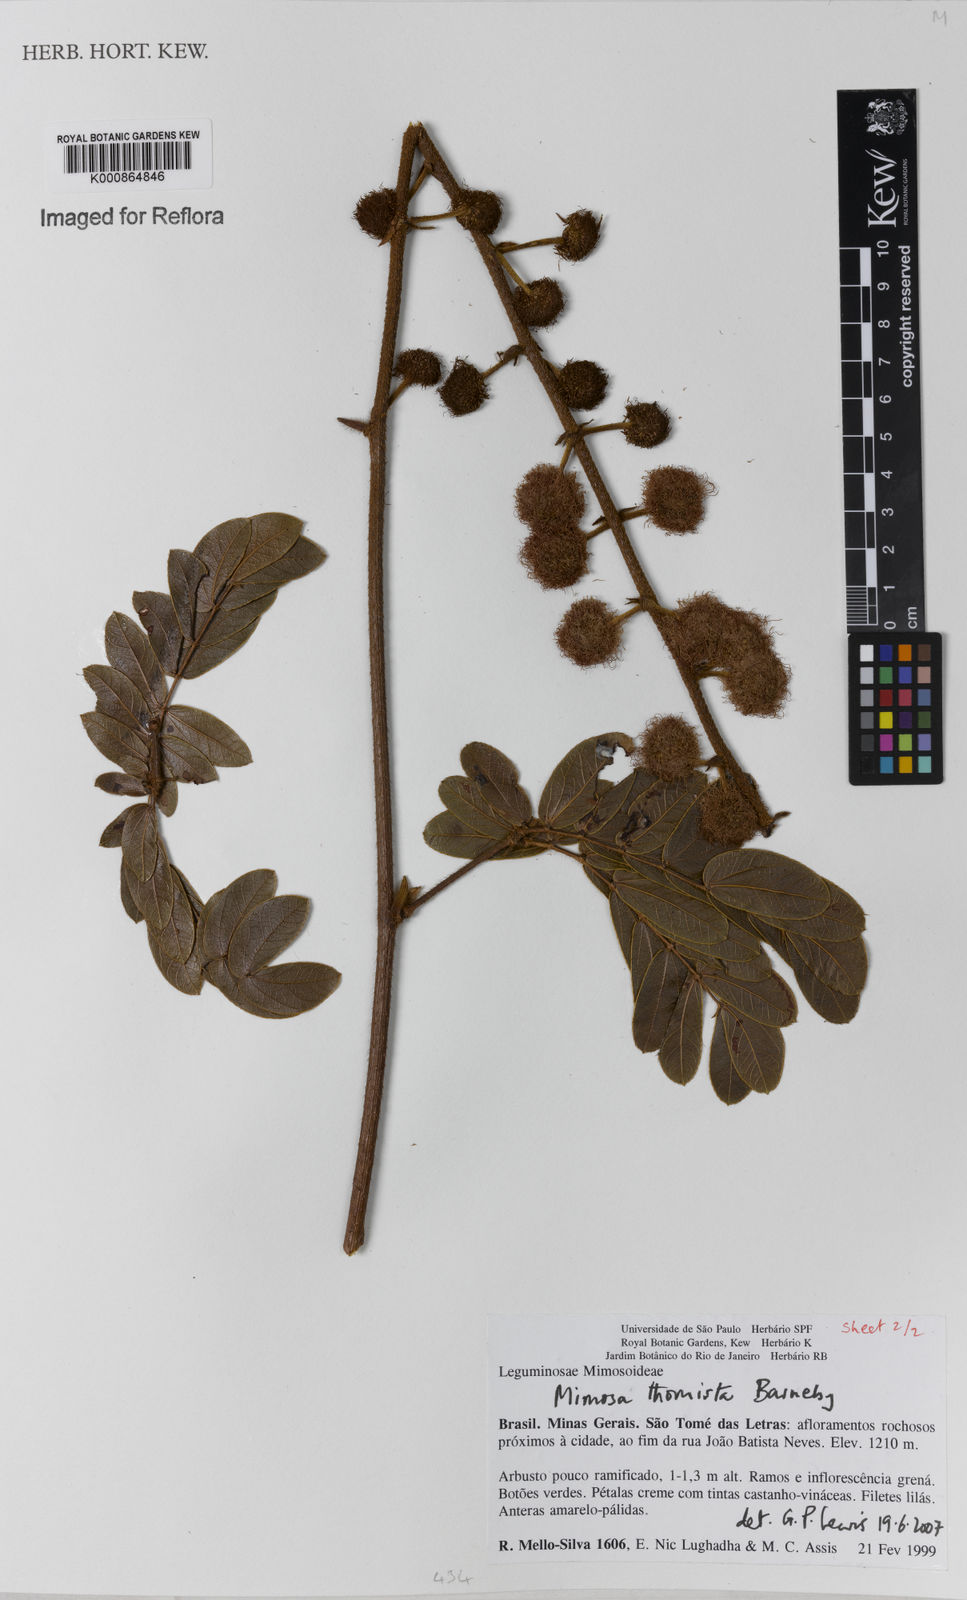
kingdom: Plantae
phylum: Tracheophyta
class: Magnoliopsida
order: Fabales
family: Fabaceae
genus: Mimosa
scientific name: Mimosa thomista
